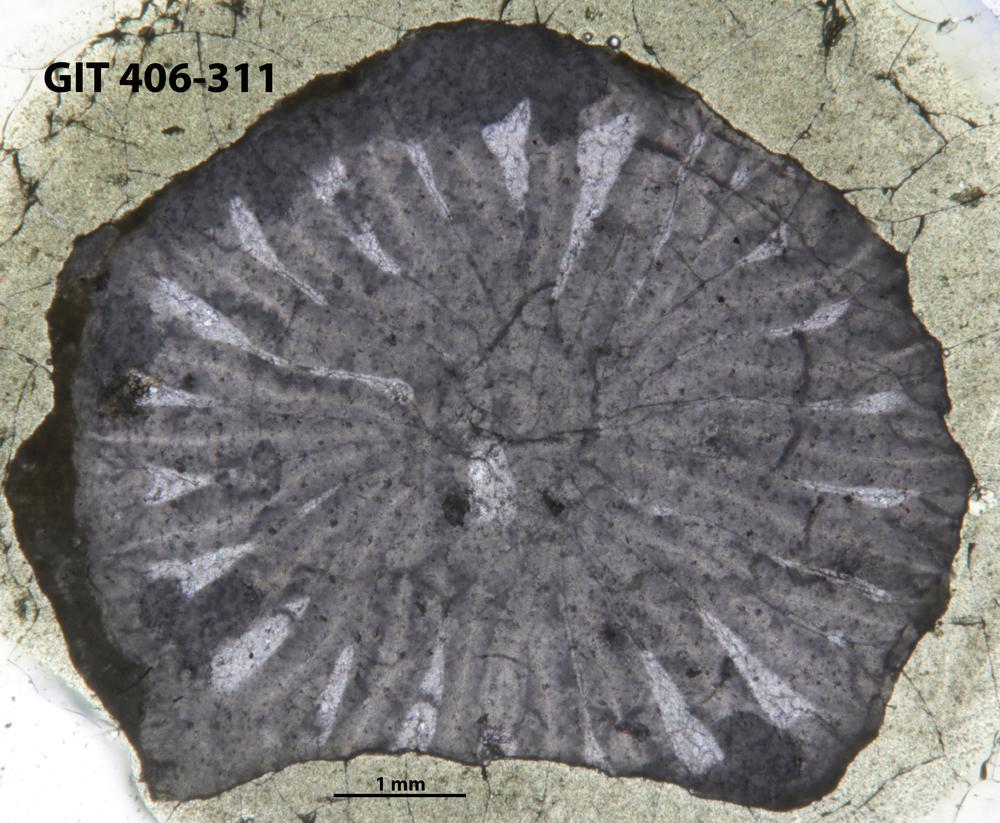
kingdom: Animalia
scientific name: Animalia
